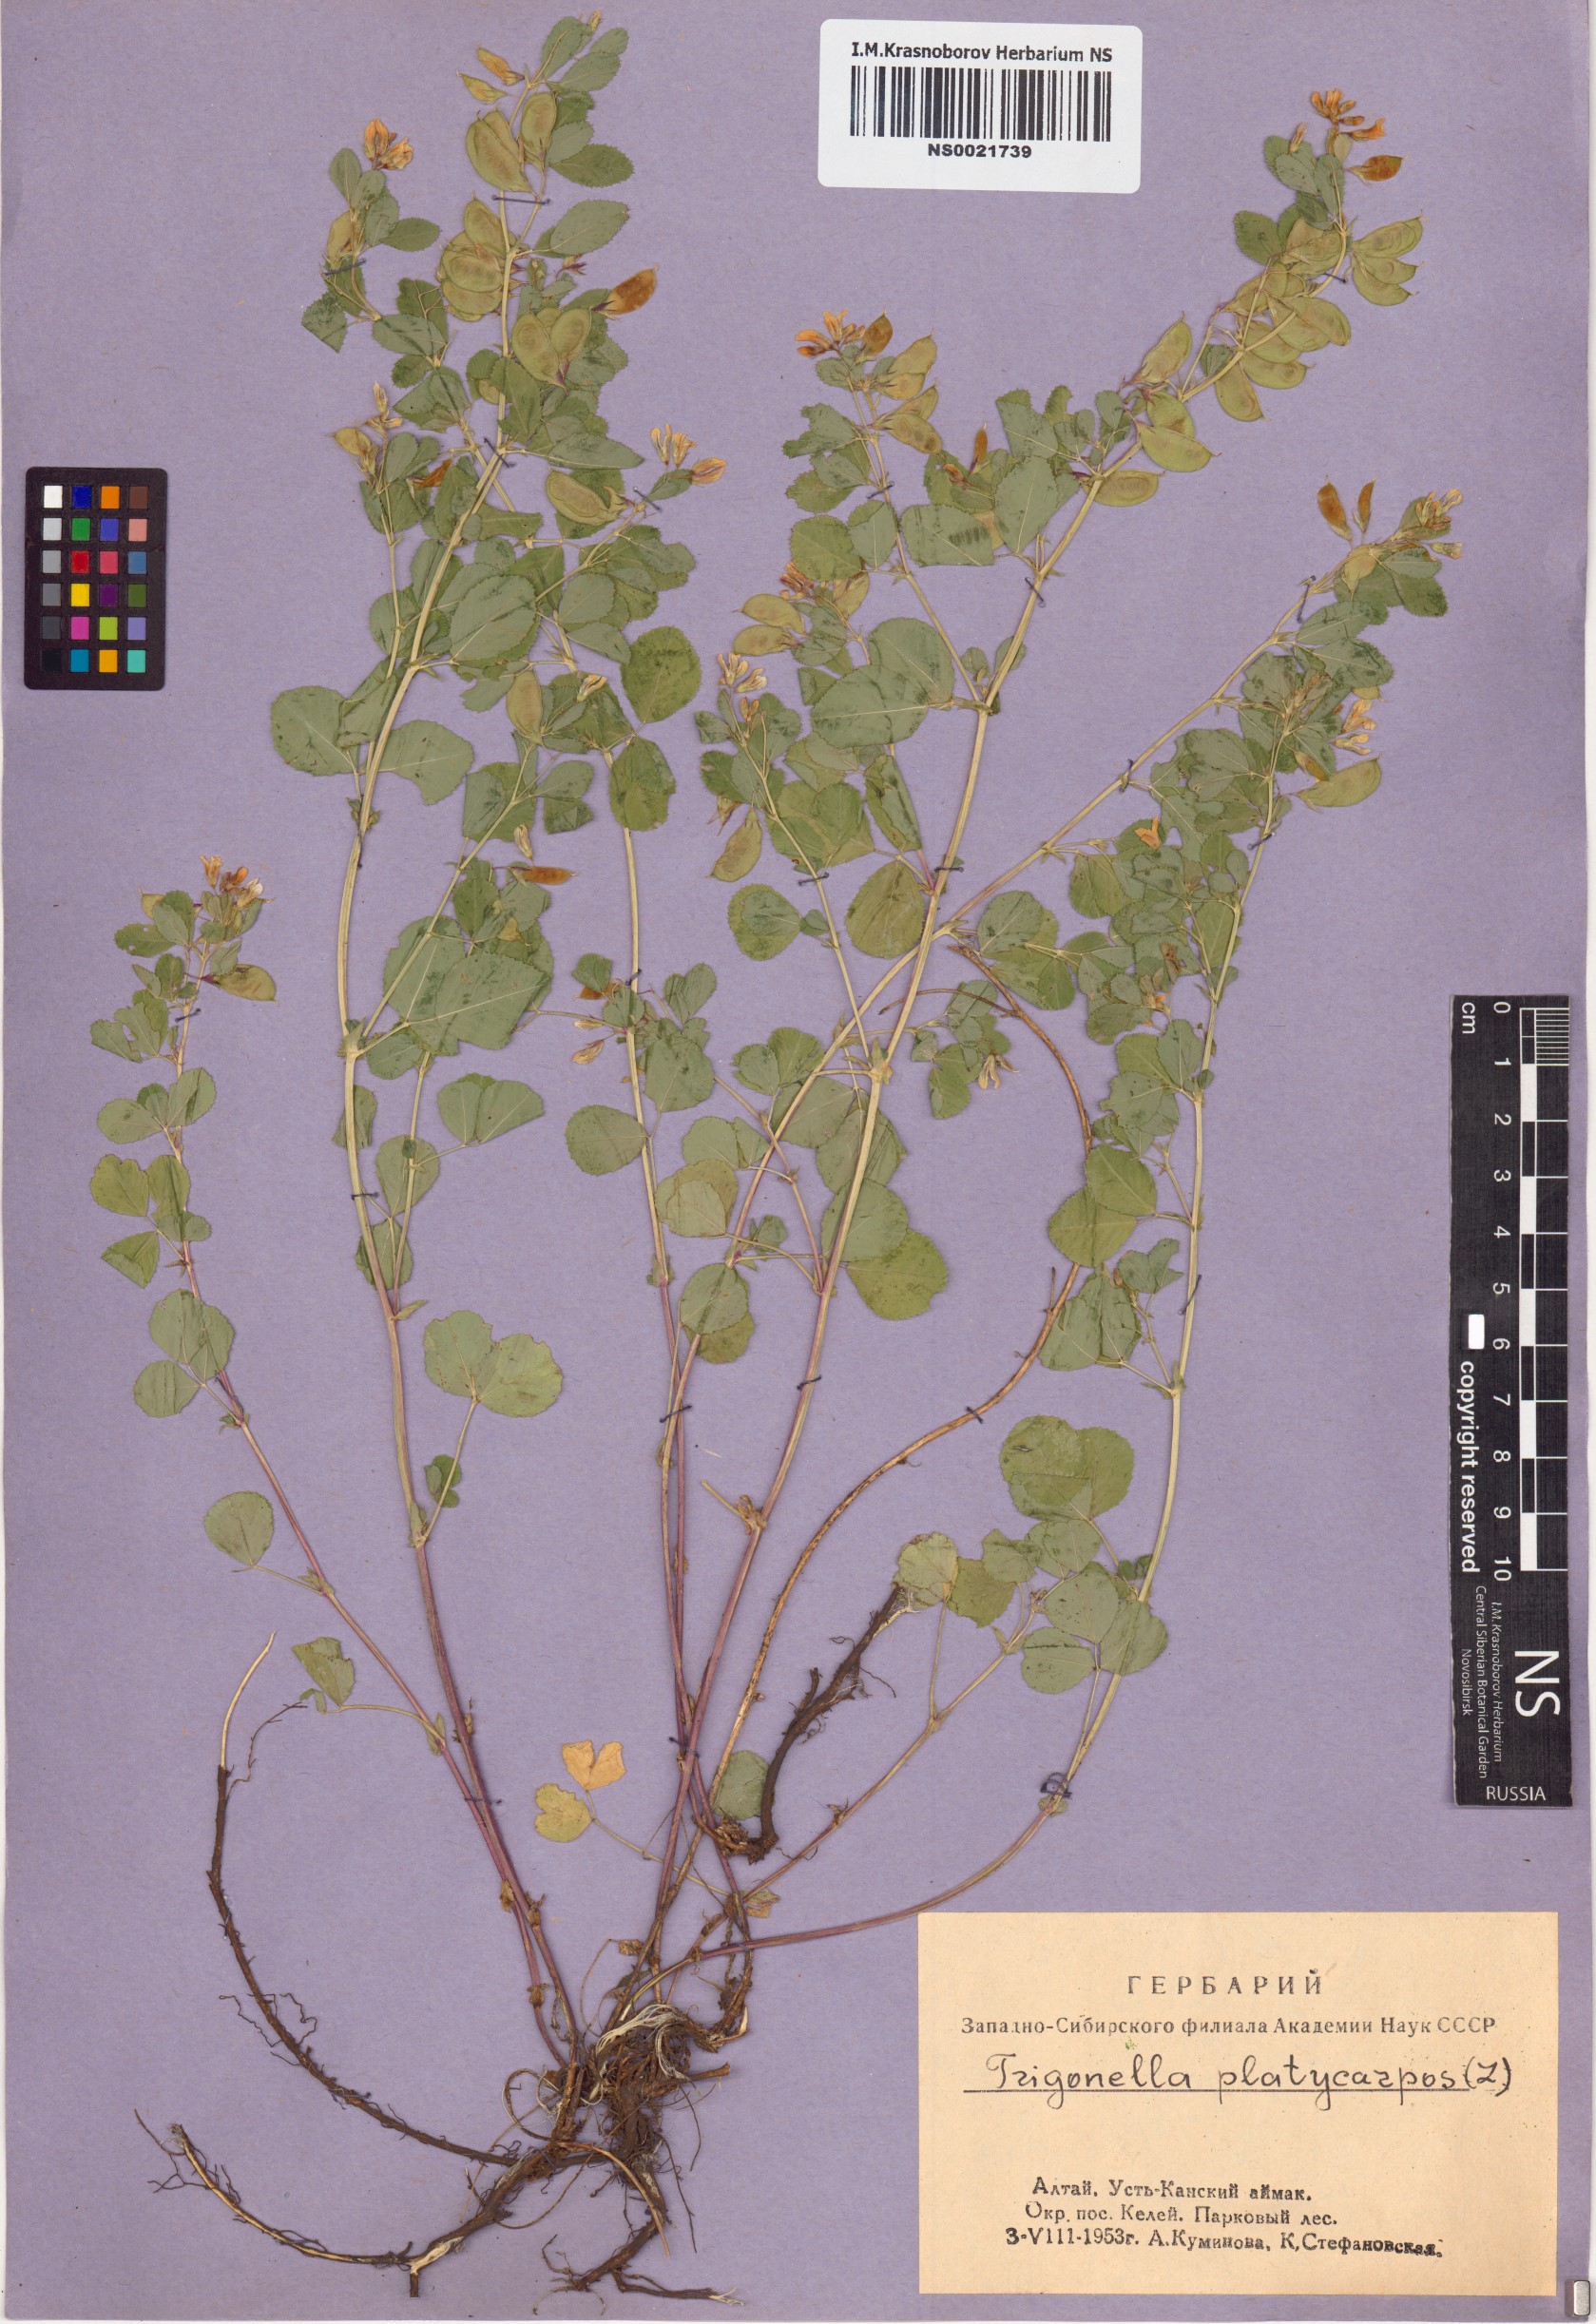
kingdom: Plantae
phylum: Tracheophyta
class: Magnoliopsida
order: Fabales
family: Fabaceae
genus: Medicago
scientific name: Medicago platycarpos
